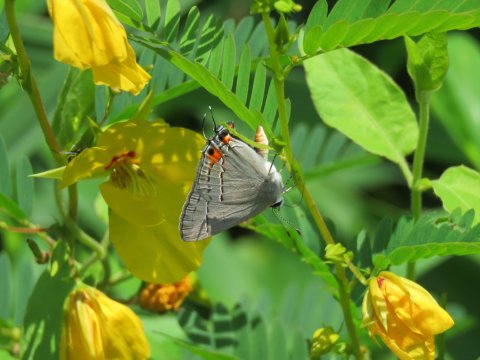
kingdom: Animalia
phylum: Arthropoda
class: Insecta
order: Lepidoptera
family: Lycaenidae
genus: Strymon
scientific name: Strymon melinus
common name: Gray Hairstreak
